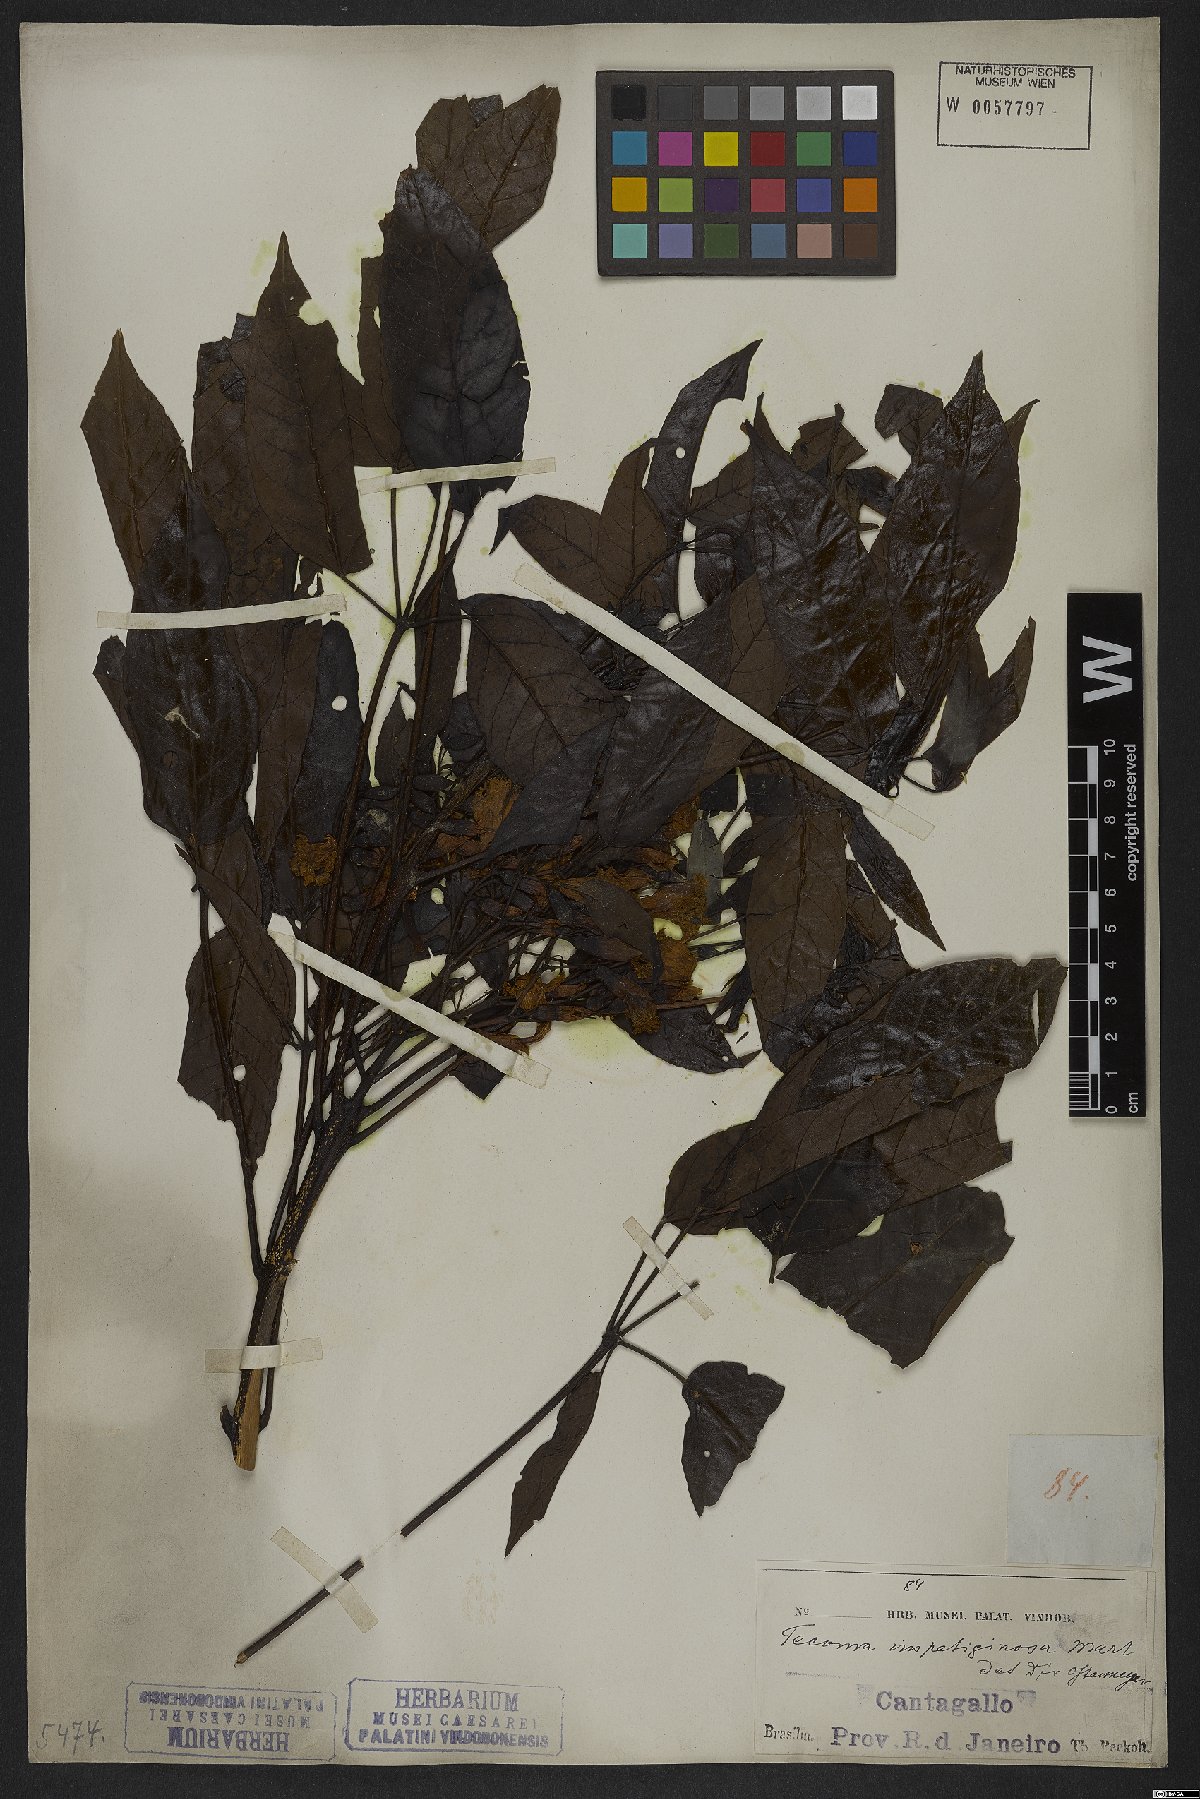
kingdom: Plantae
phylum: Tracheophyta
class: Magnoliopsida
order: Lamiales
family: Bignoniaceae
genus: Handroanthus
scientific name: Handroanthus impetiginosum
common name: Pink trumpet tree
